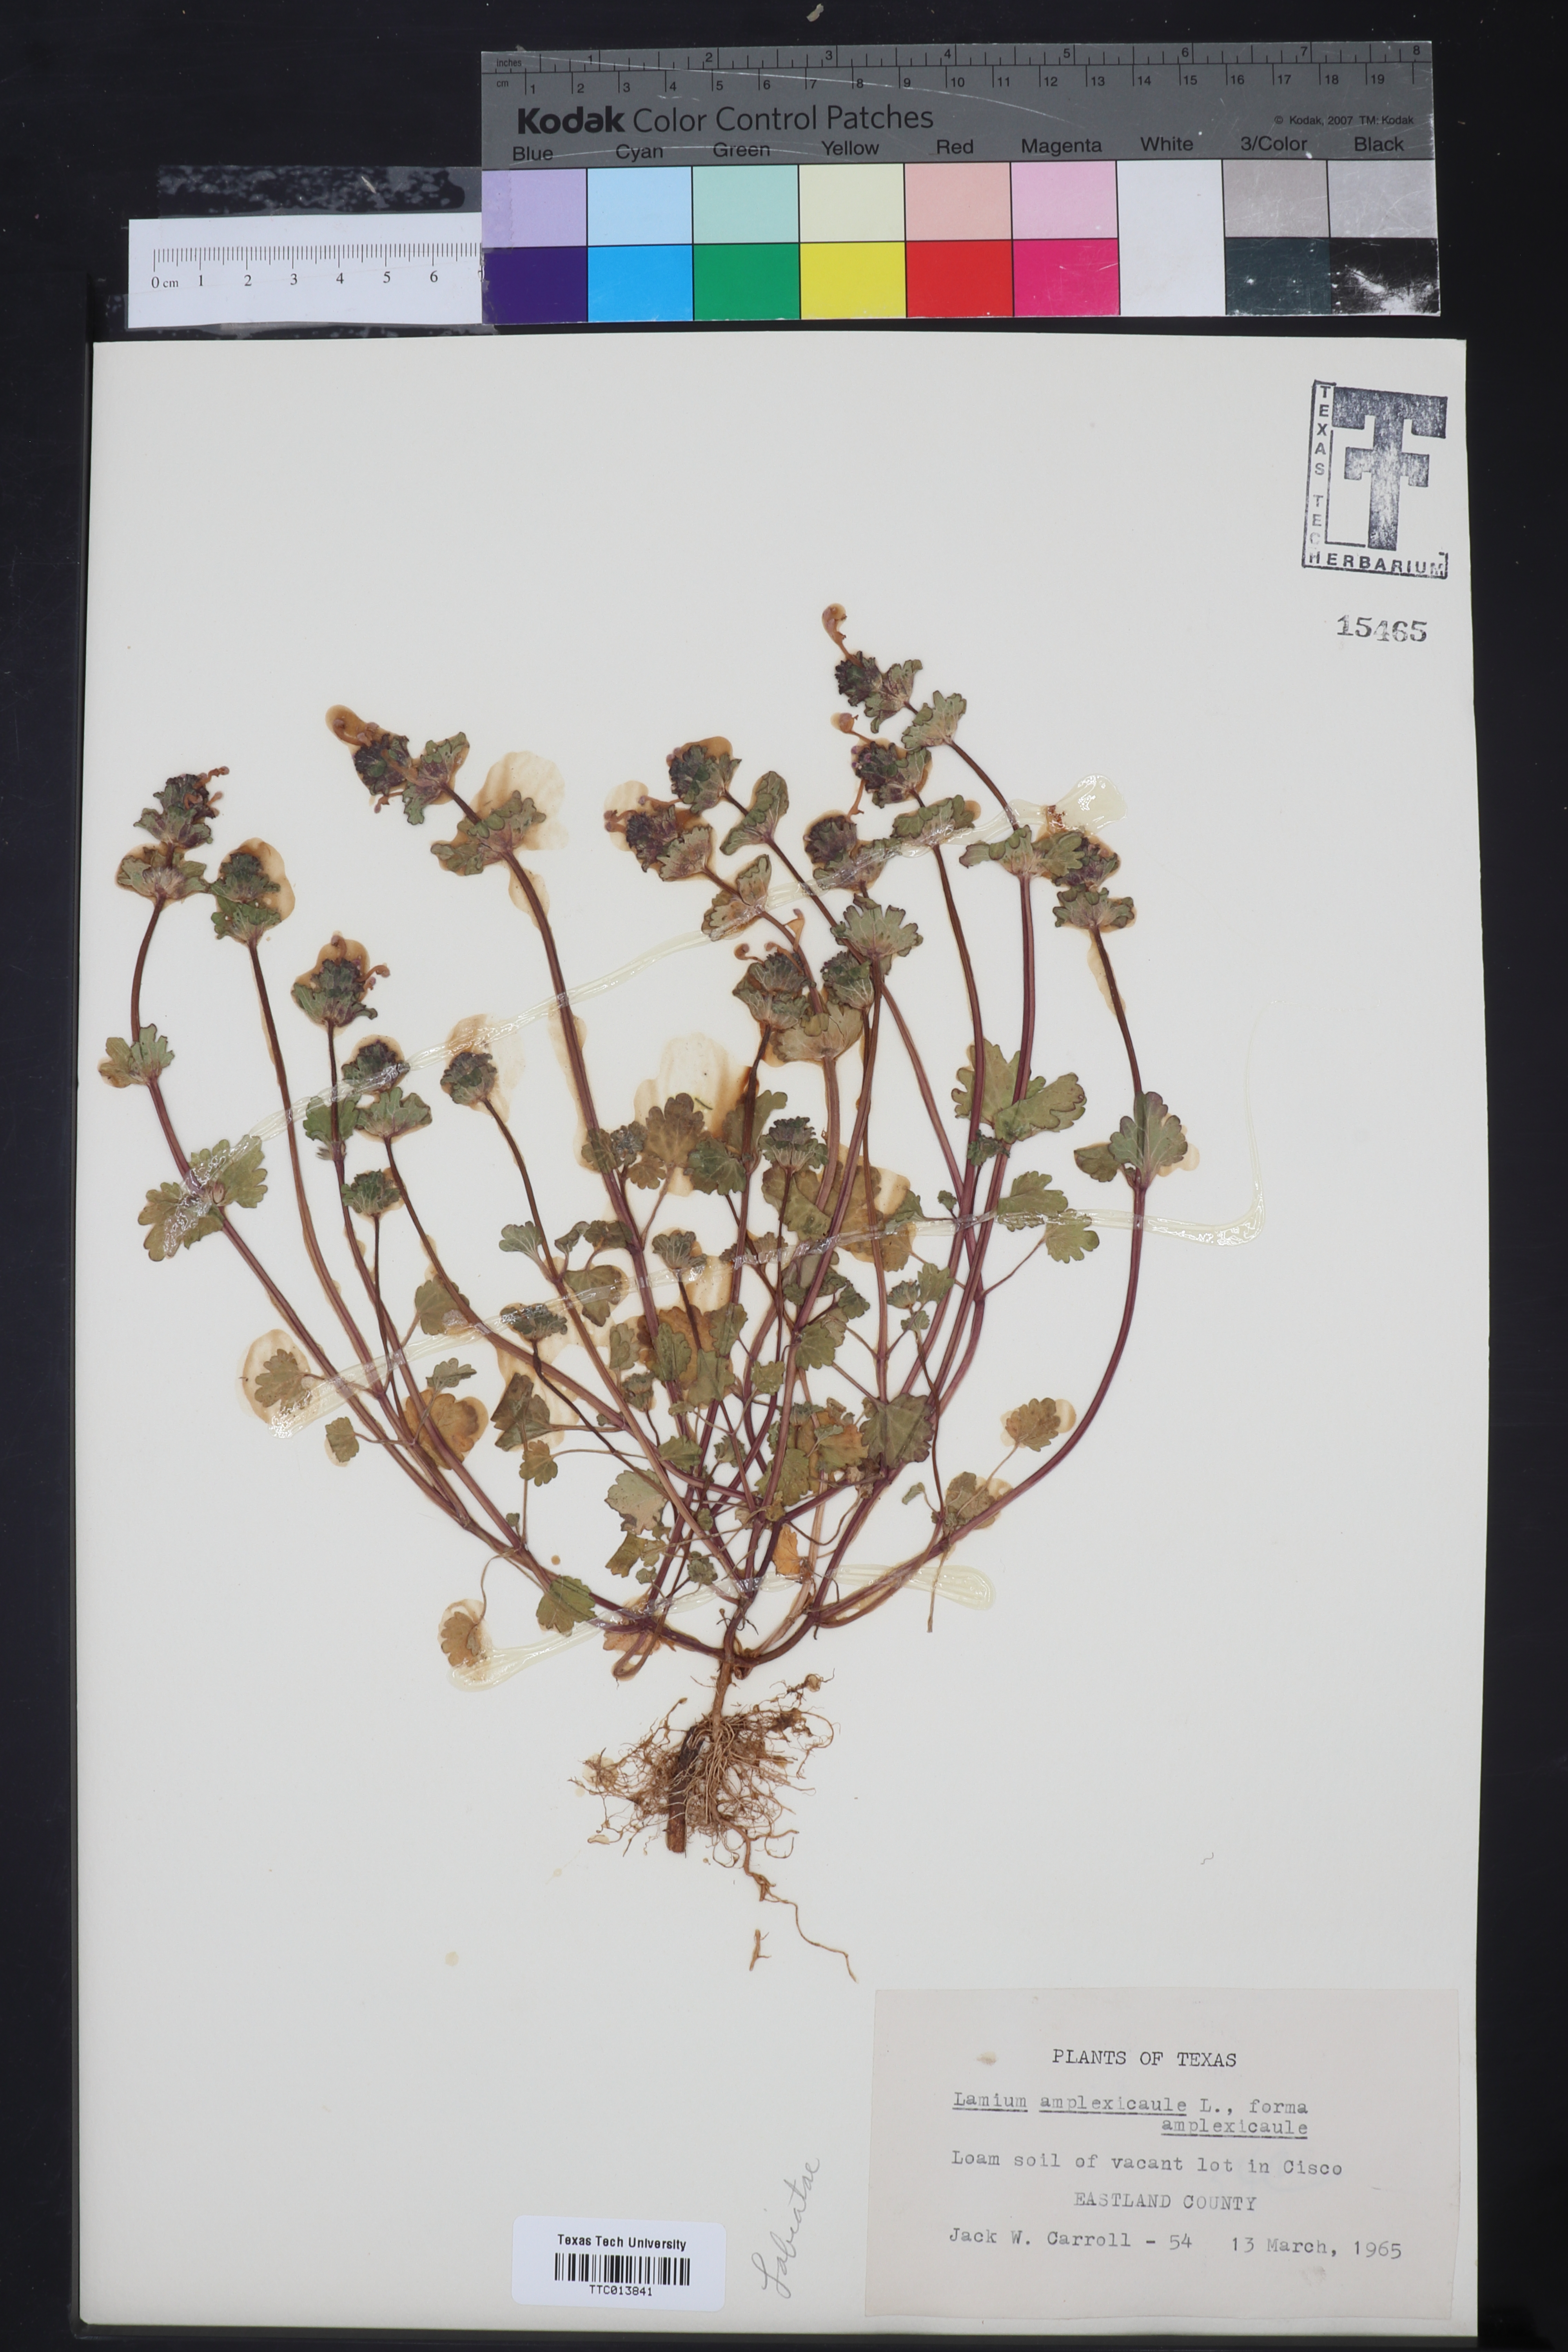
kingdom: Plantae
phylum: Tracheophyta
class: Magnoliopsida
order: Lamiales
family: Lamiaceae
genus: Lamium
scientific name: Lamium amplexicaule
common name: Henbit dead-nettle
